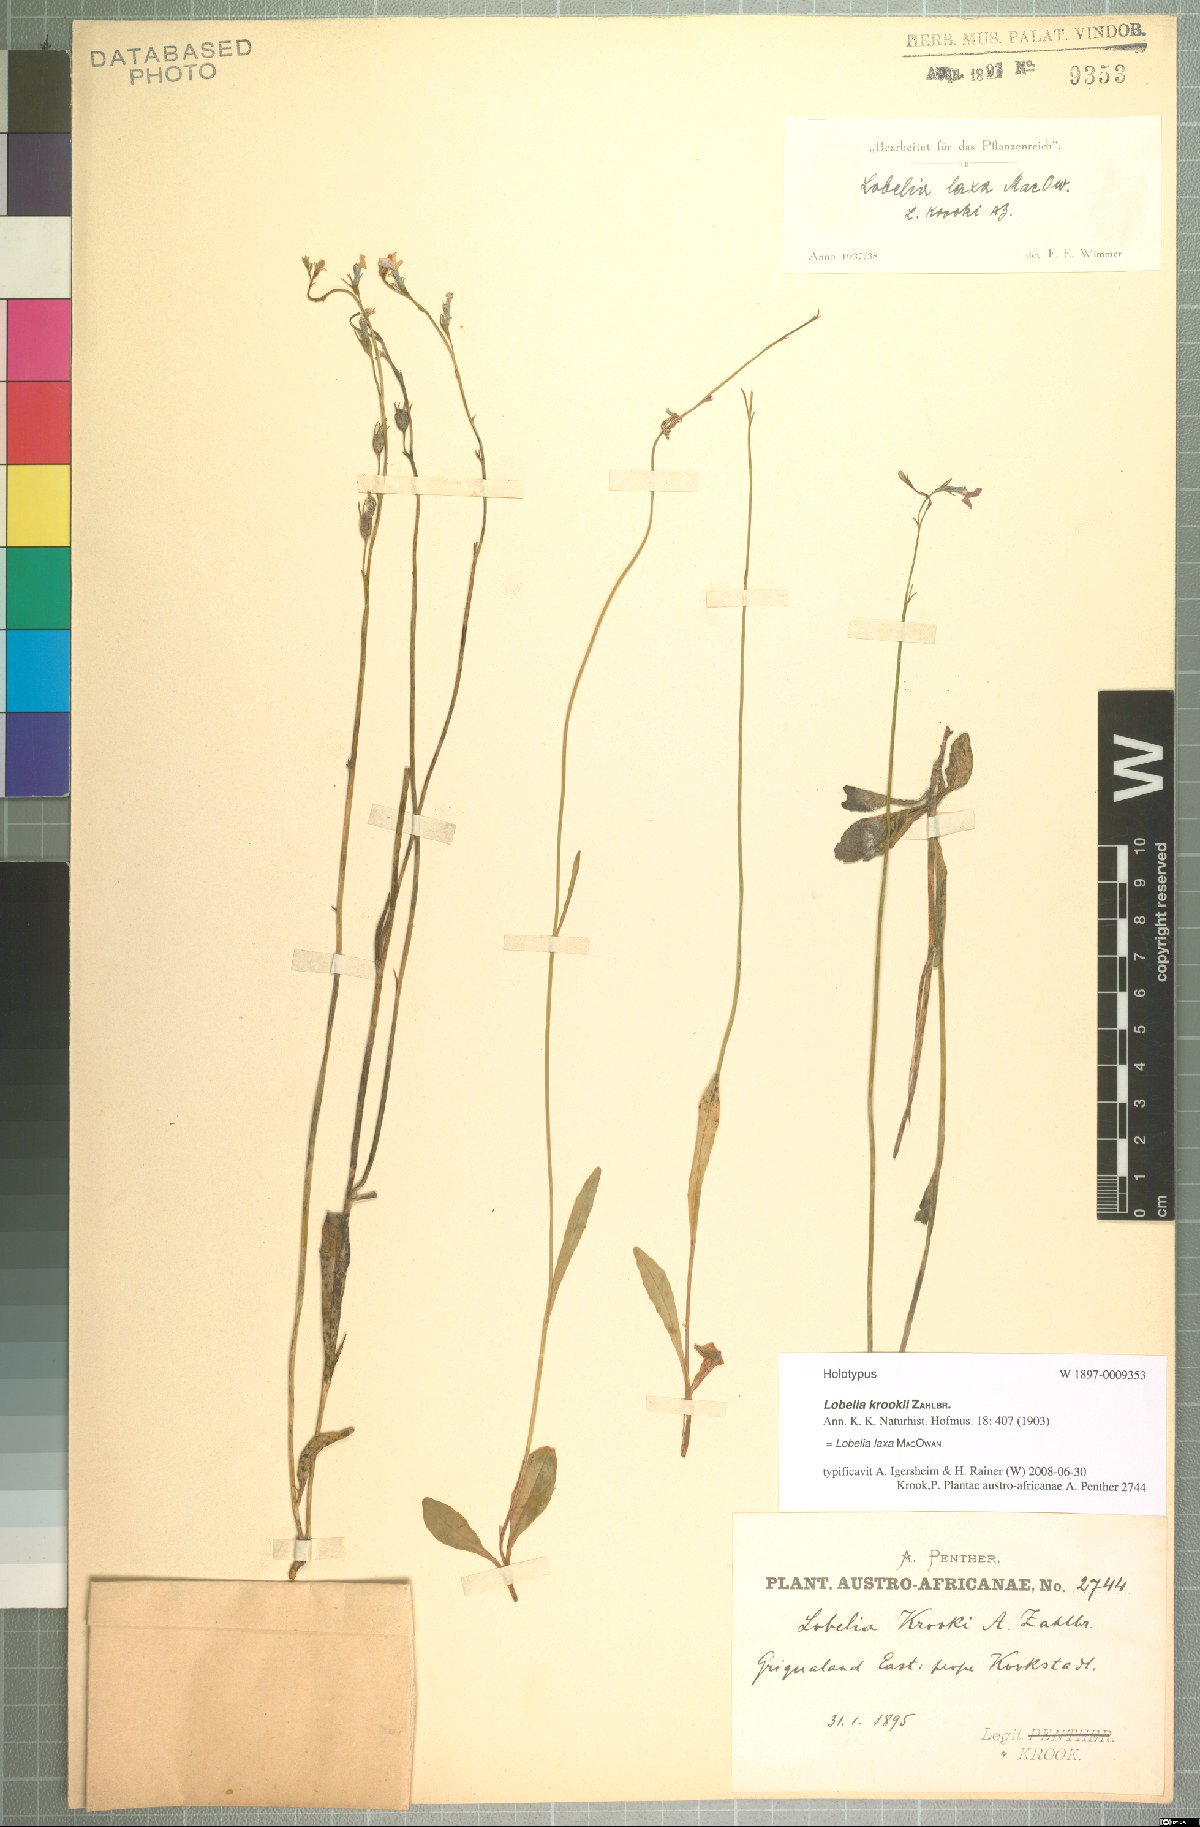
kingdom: Plantae
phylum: Tracheophyta
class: Magnoliopsida
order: Asterales
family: Campanulaceae
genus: Lobelia
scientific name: Lobelia laxa
